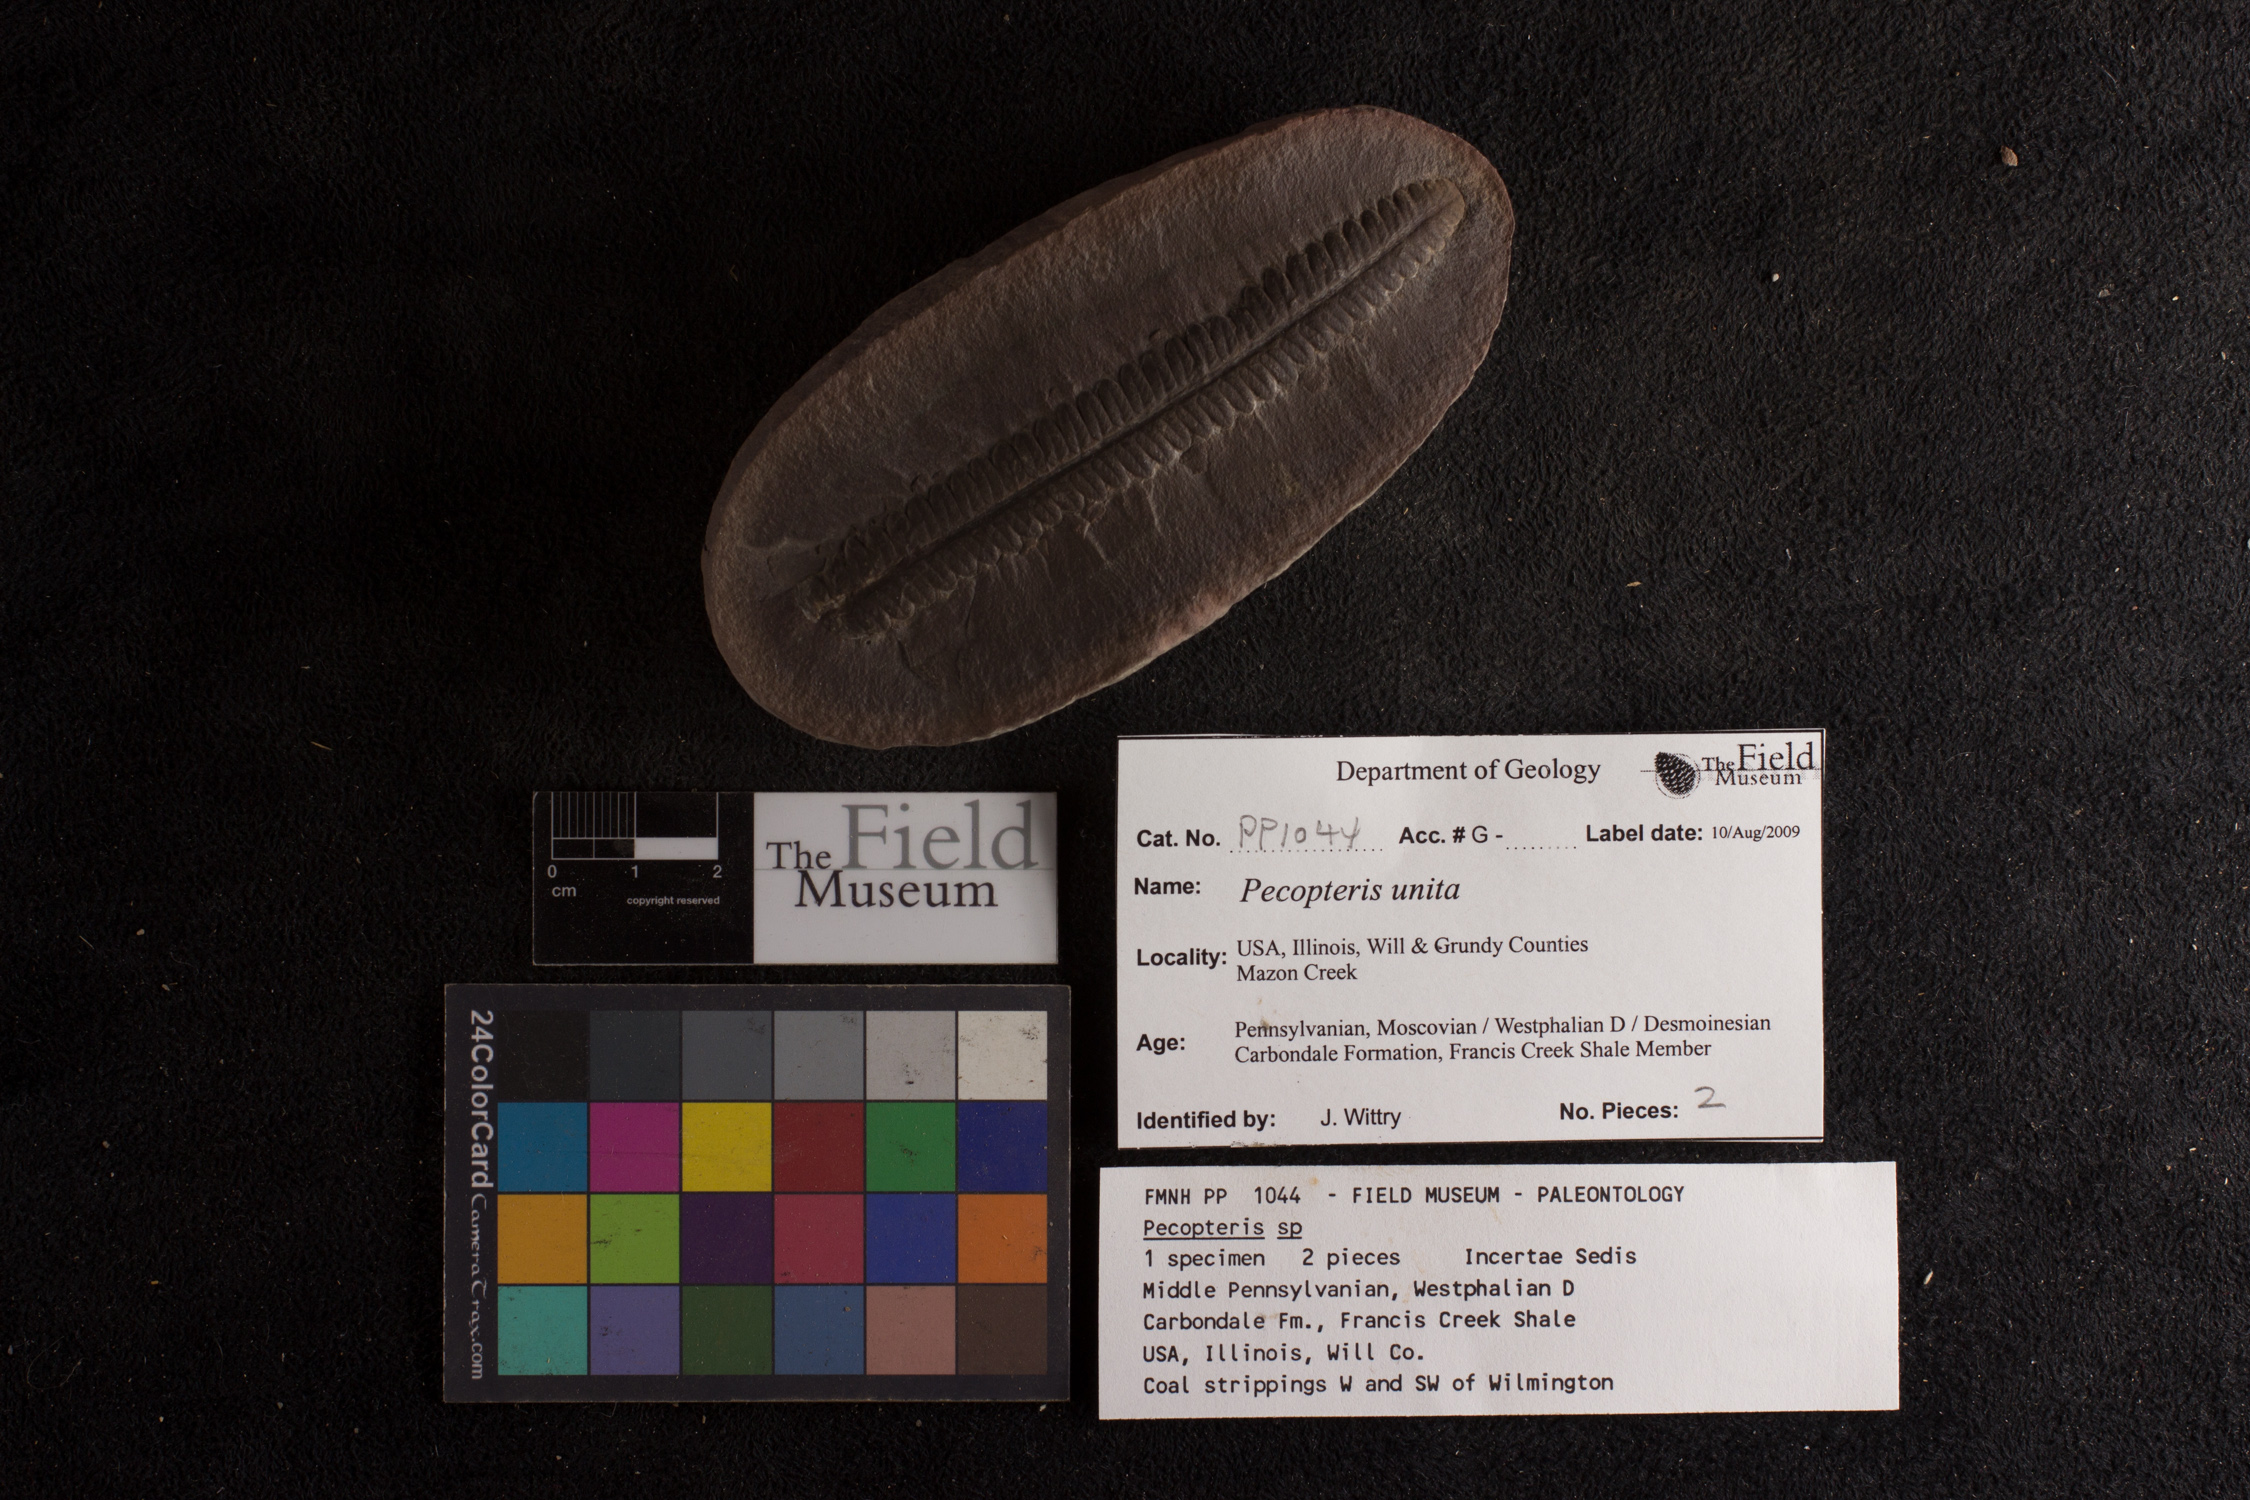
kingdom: Plantae
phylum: Tracheophyta
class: Polypodiopsida
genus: Diplazites
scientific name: Diplazites
